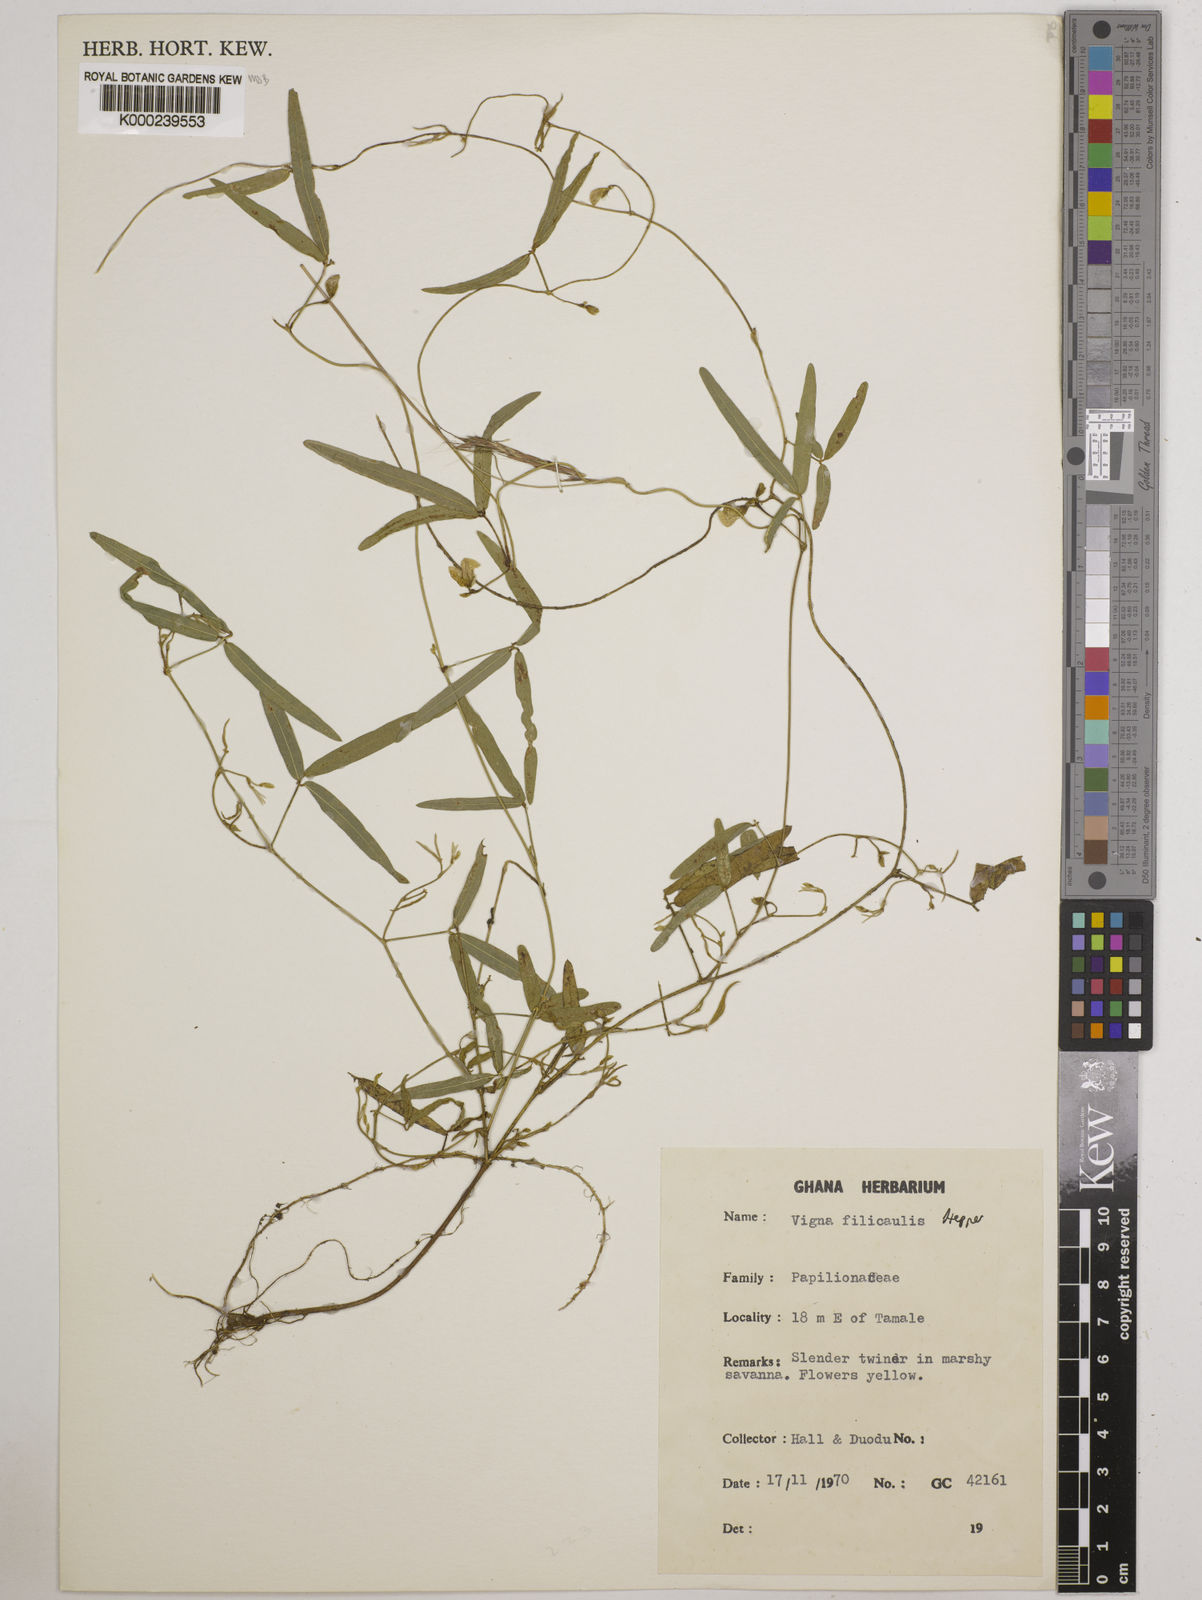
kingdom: Plantae
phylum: Tracheophyta
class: Magnoliopsida
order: Fabales
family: Fabaceae
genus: Vigna
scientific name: Vigna filicaulis
